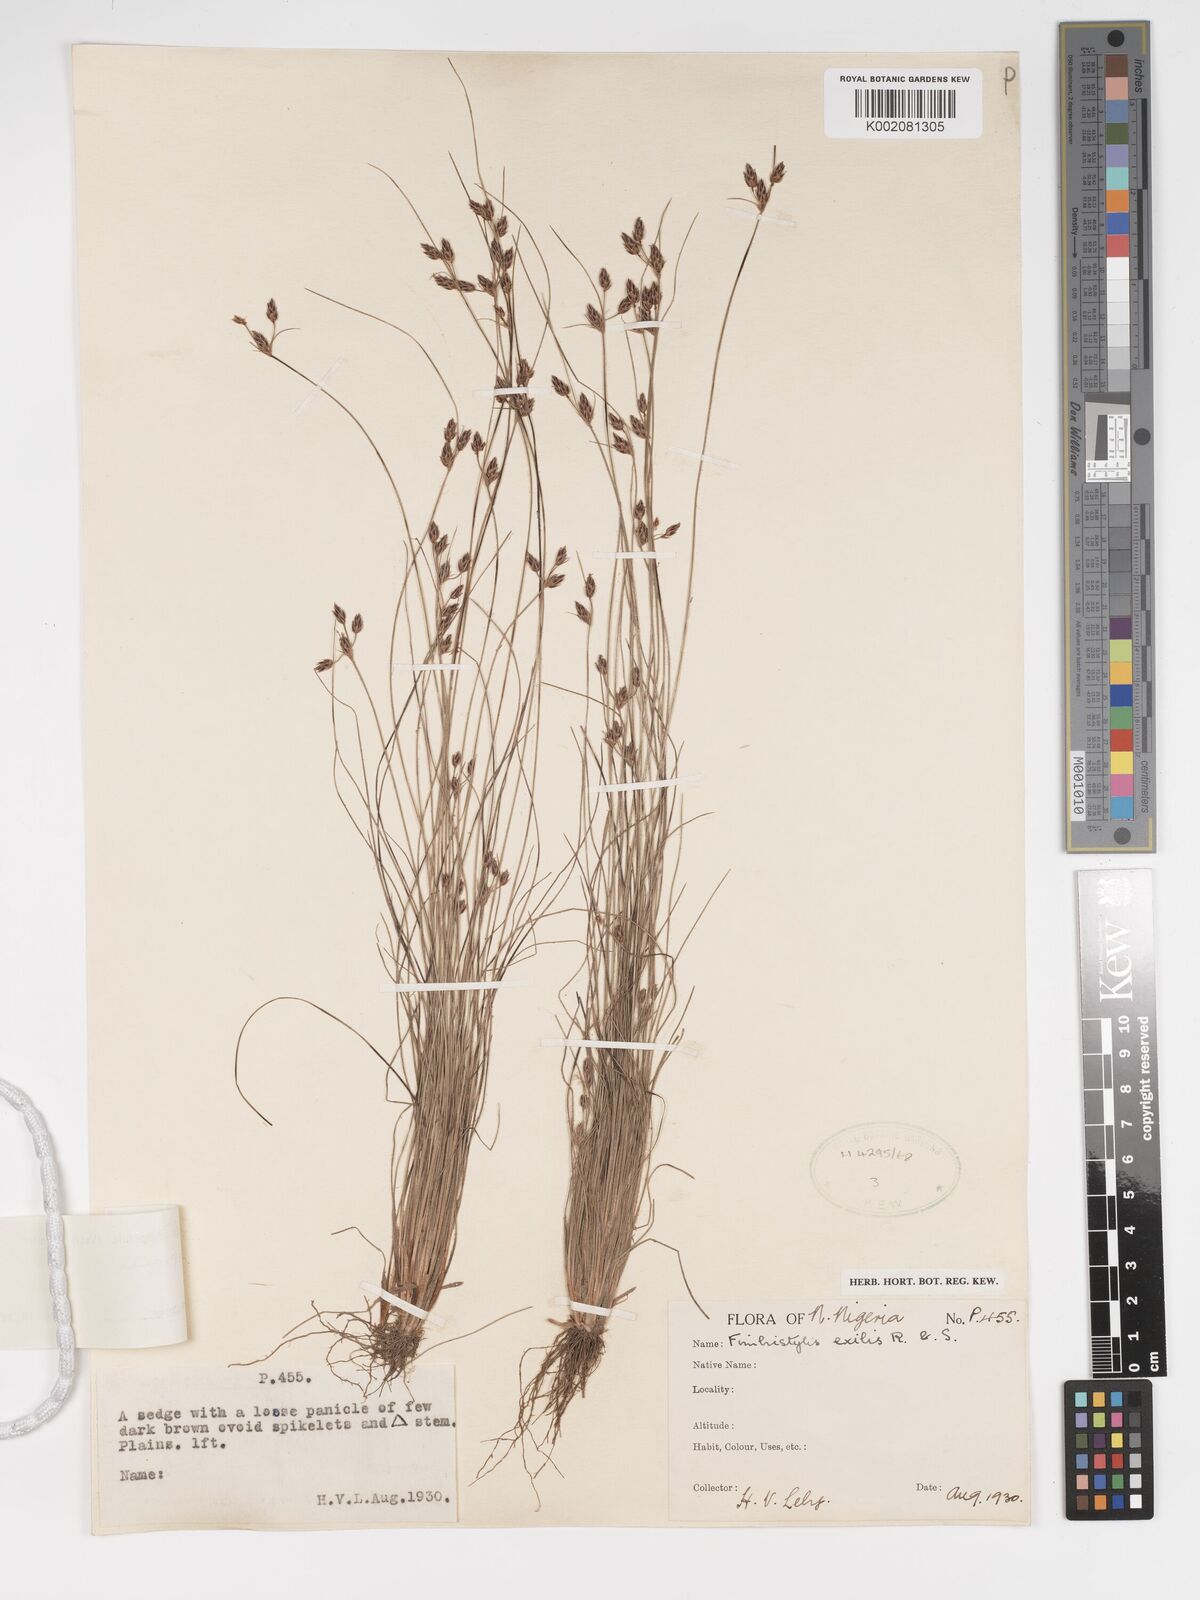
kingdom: Plantae
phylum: Tracheophyta
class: Liliopsida
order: Poales
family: Cyperaceae
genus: Bulbostylis
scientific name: Bulbostylis hispidula
